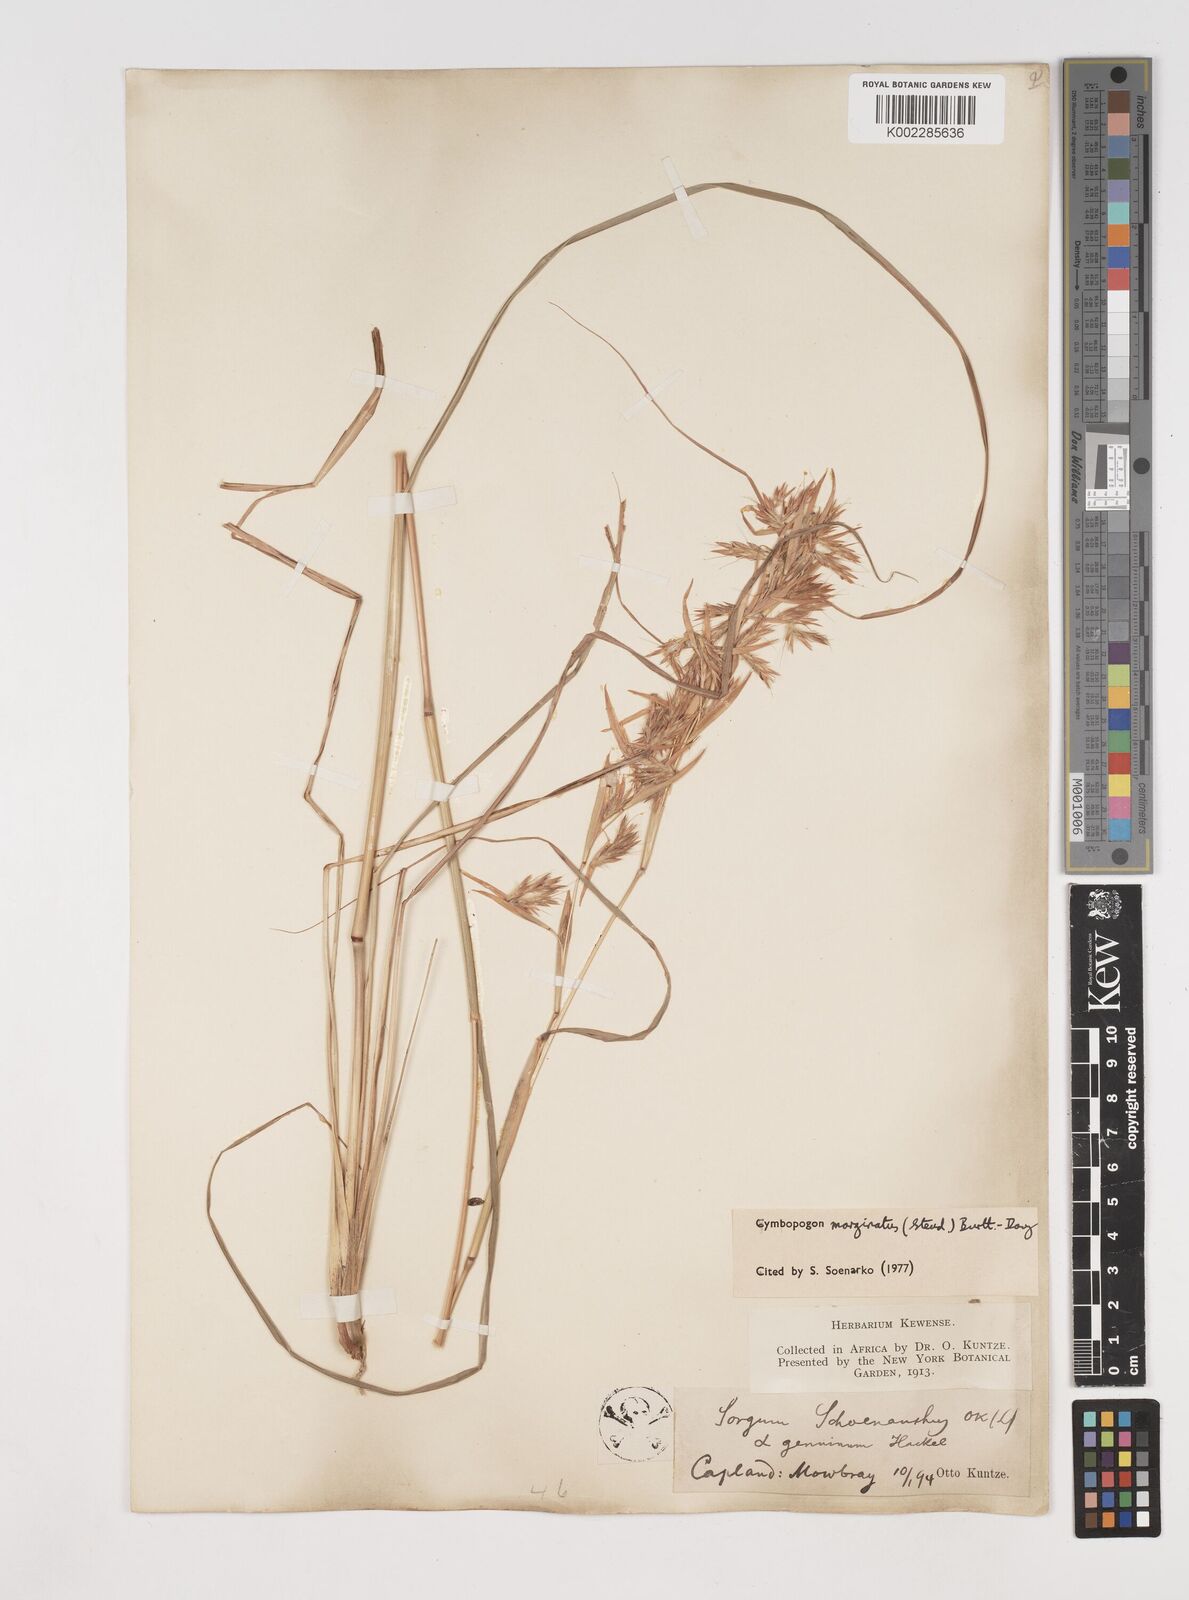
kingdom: Plantae
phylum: Tracheophyta
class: Liliopsida
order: Poales
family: Poaceae
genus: Cymbopogon
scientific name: Cymbopogon marginatus
